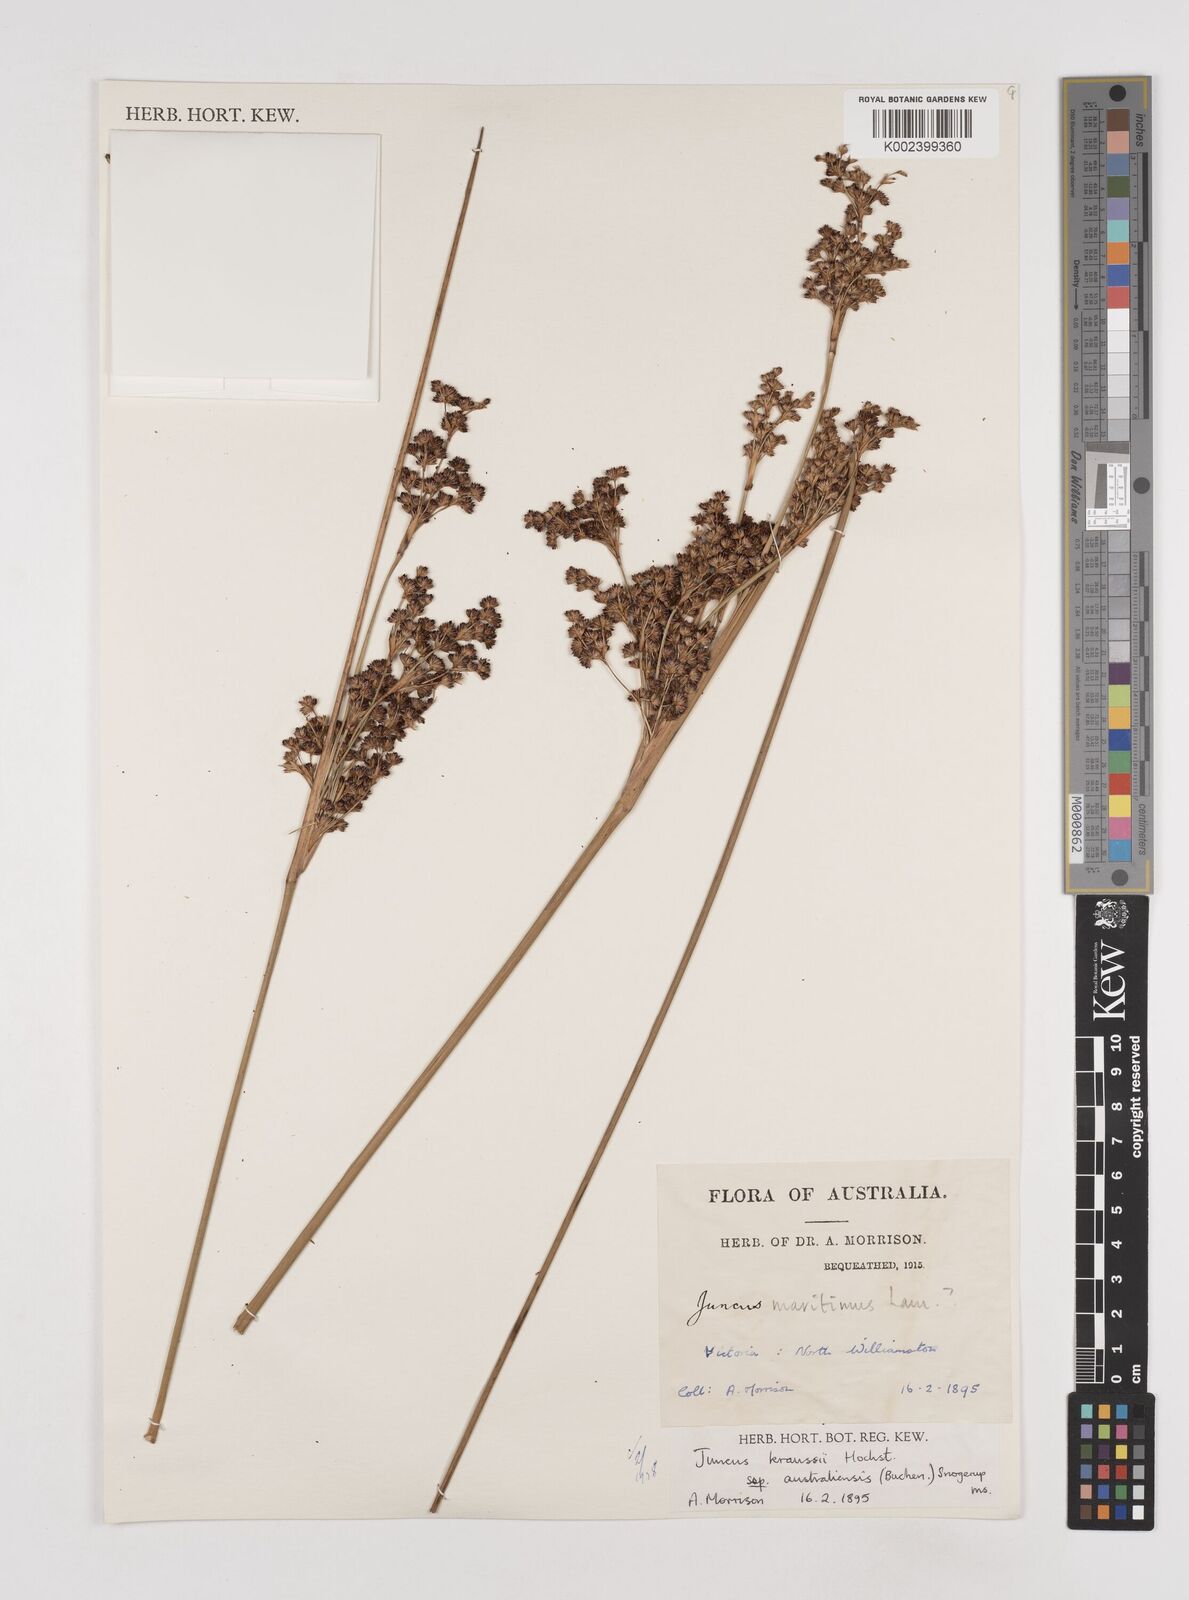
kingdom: Plantae
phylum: Tracheophyta
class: Liliopsida
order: Poales
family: Juncaceae
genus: Juncus
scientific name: Juncus kraussii
